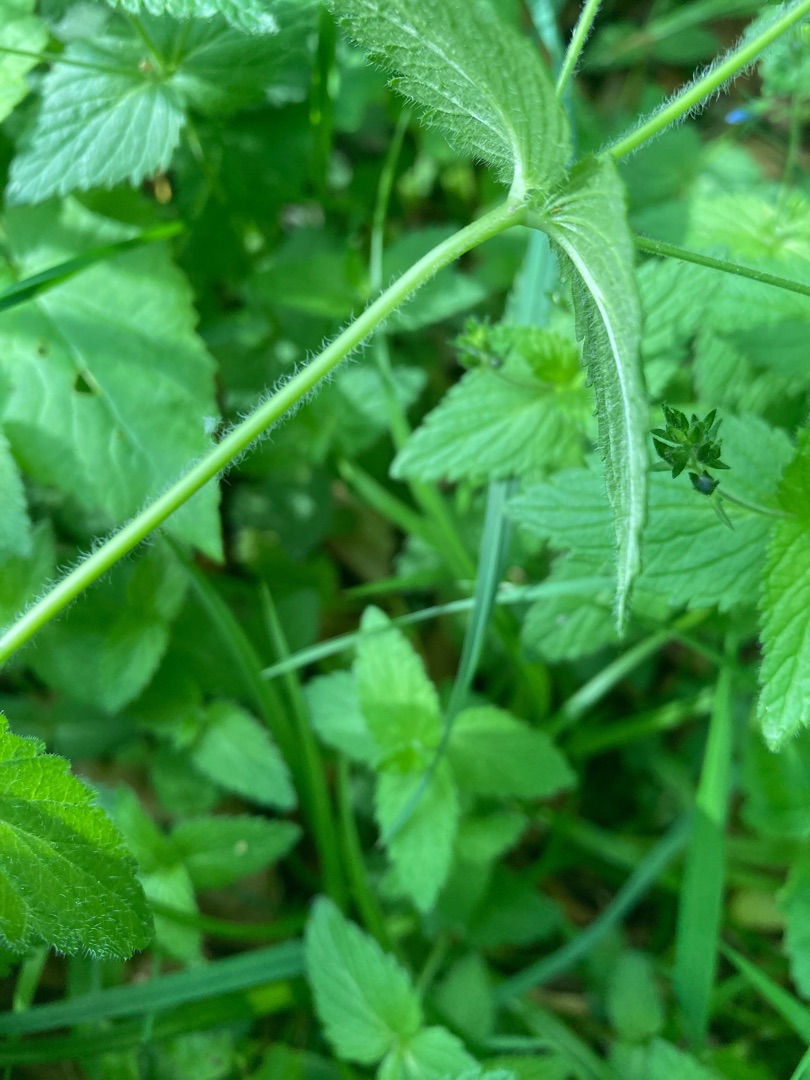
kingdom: Plantae
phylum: Tracheophyta
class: Magnoliopsida
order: Lamiales
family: Plantaginaceae
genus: Veronica
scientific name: Veronica chamaedrys
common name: Tveskægget ærenpris
